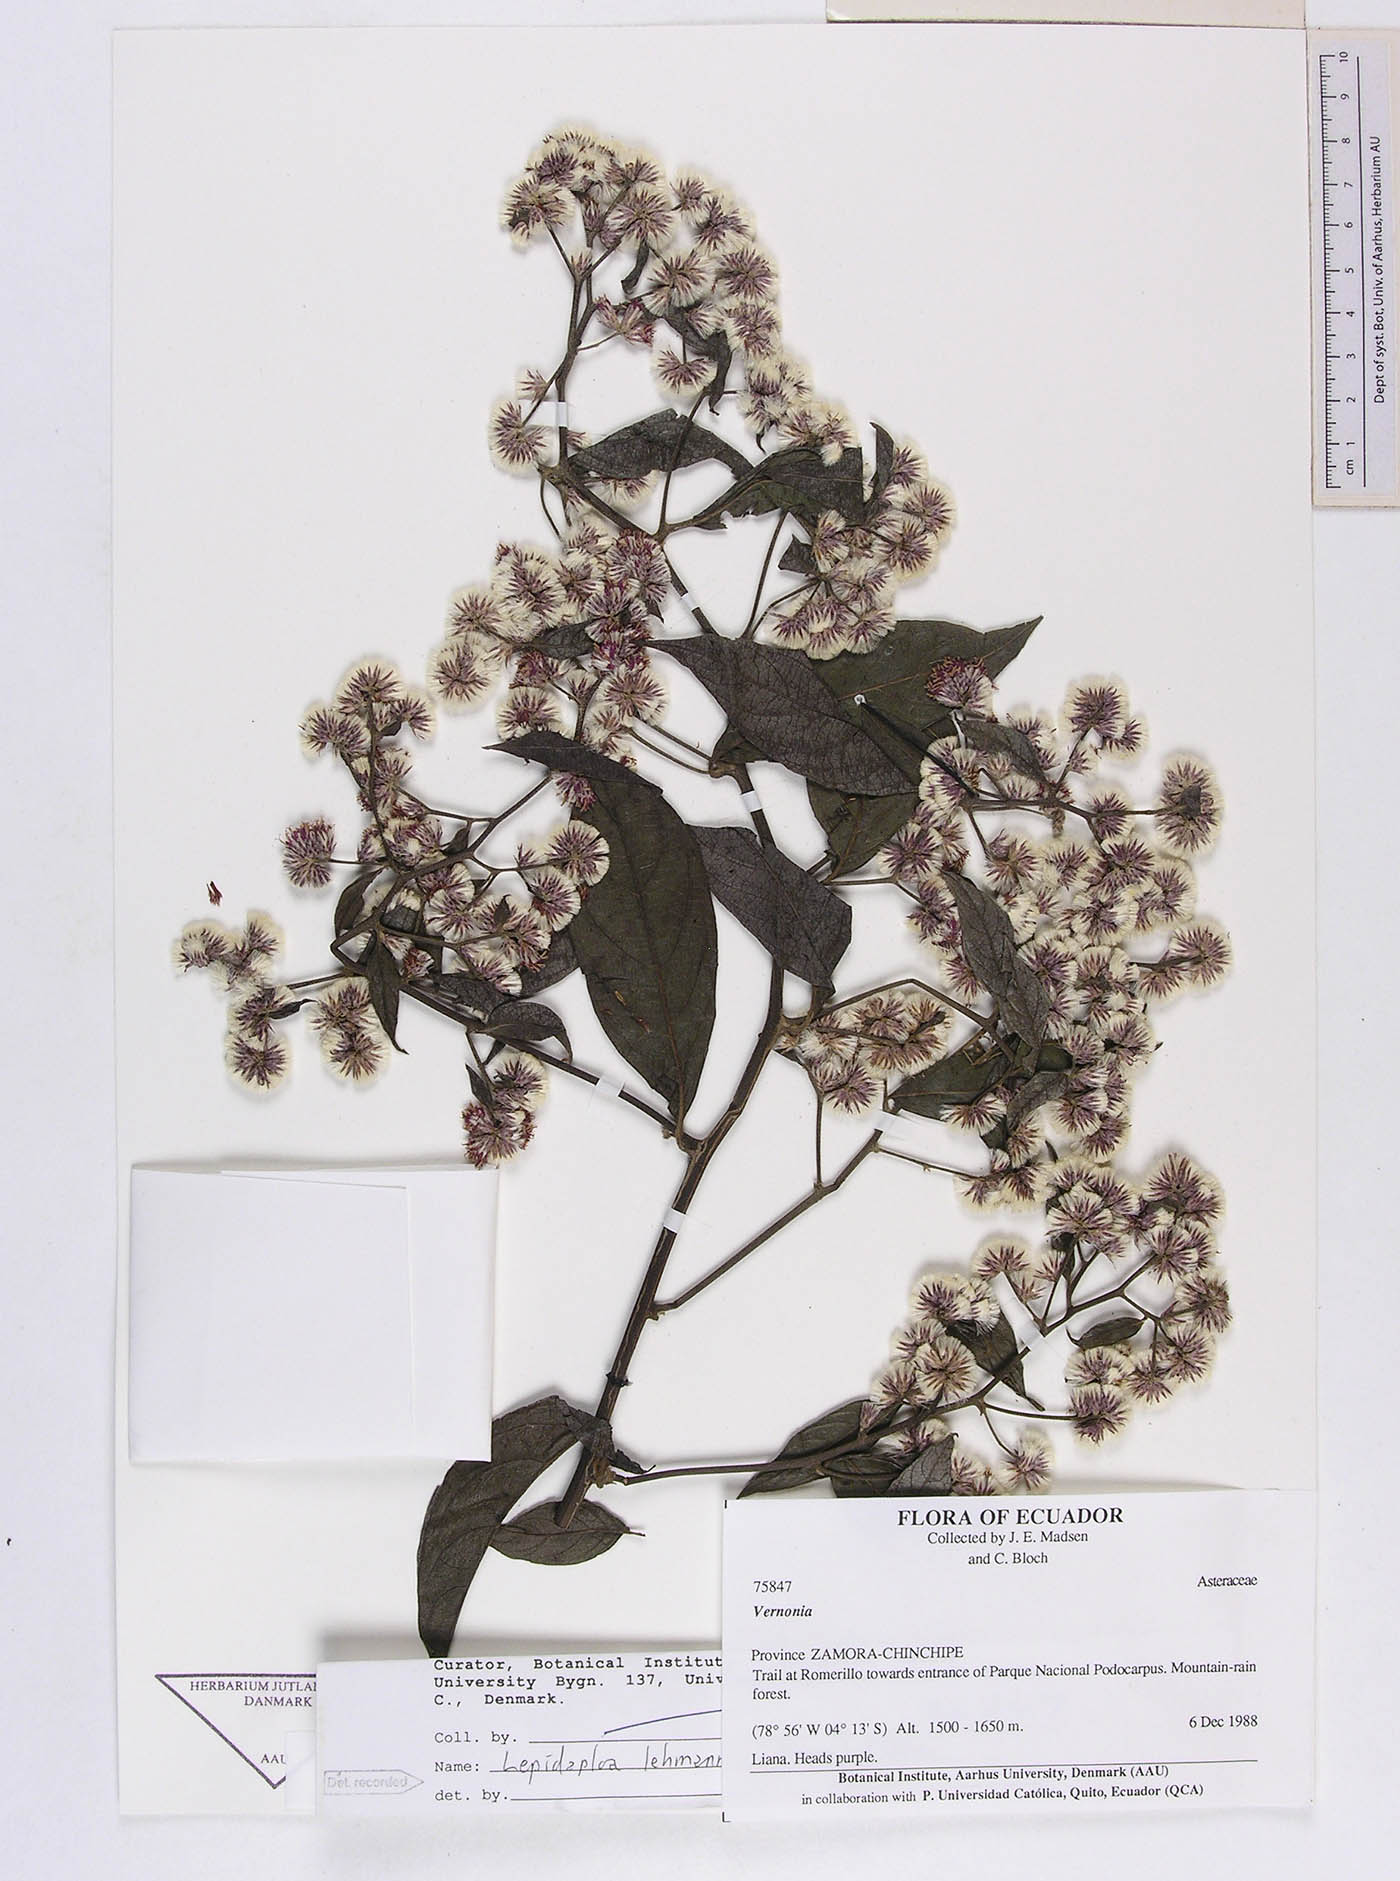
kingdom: Plantae
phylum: Tracheophyta
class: Magnoliopsida
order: Asterales
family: Asteraceae
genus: Lepidaploa
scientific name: Lepidaploa lehmannii
